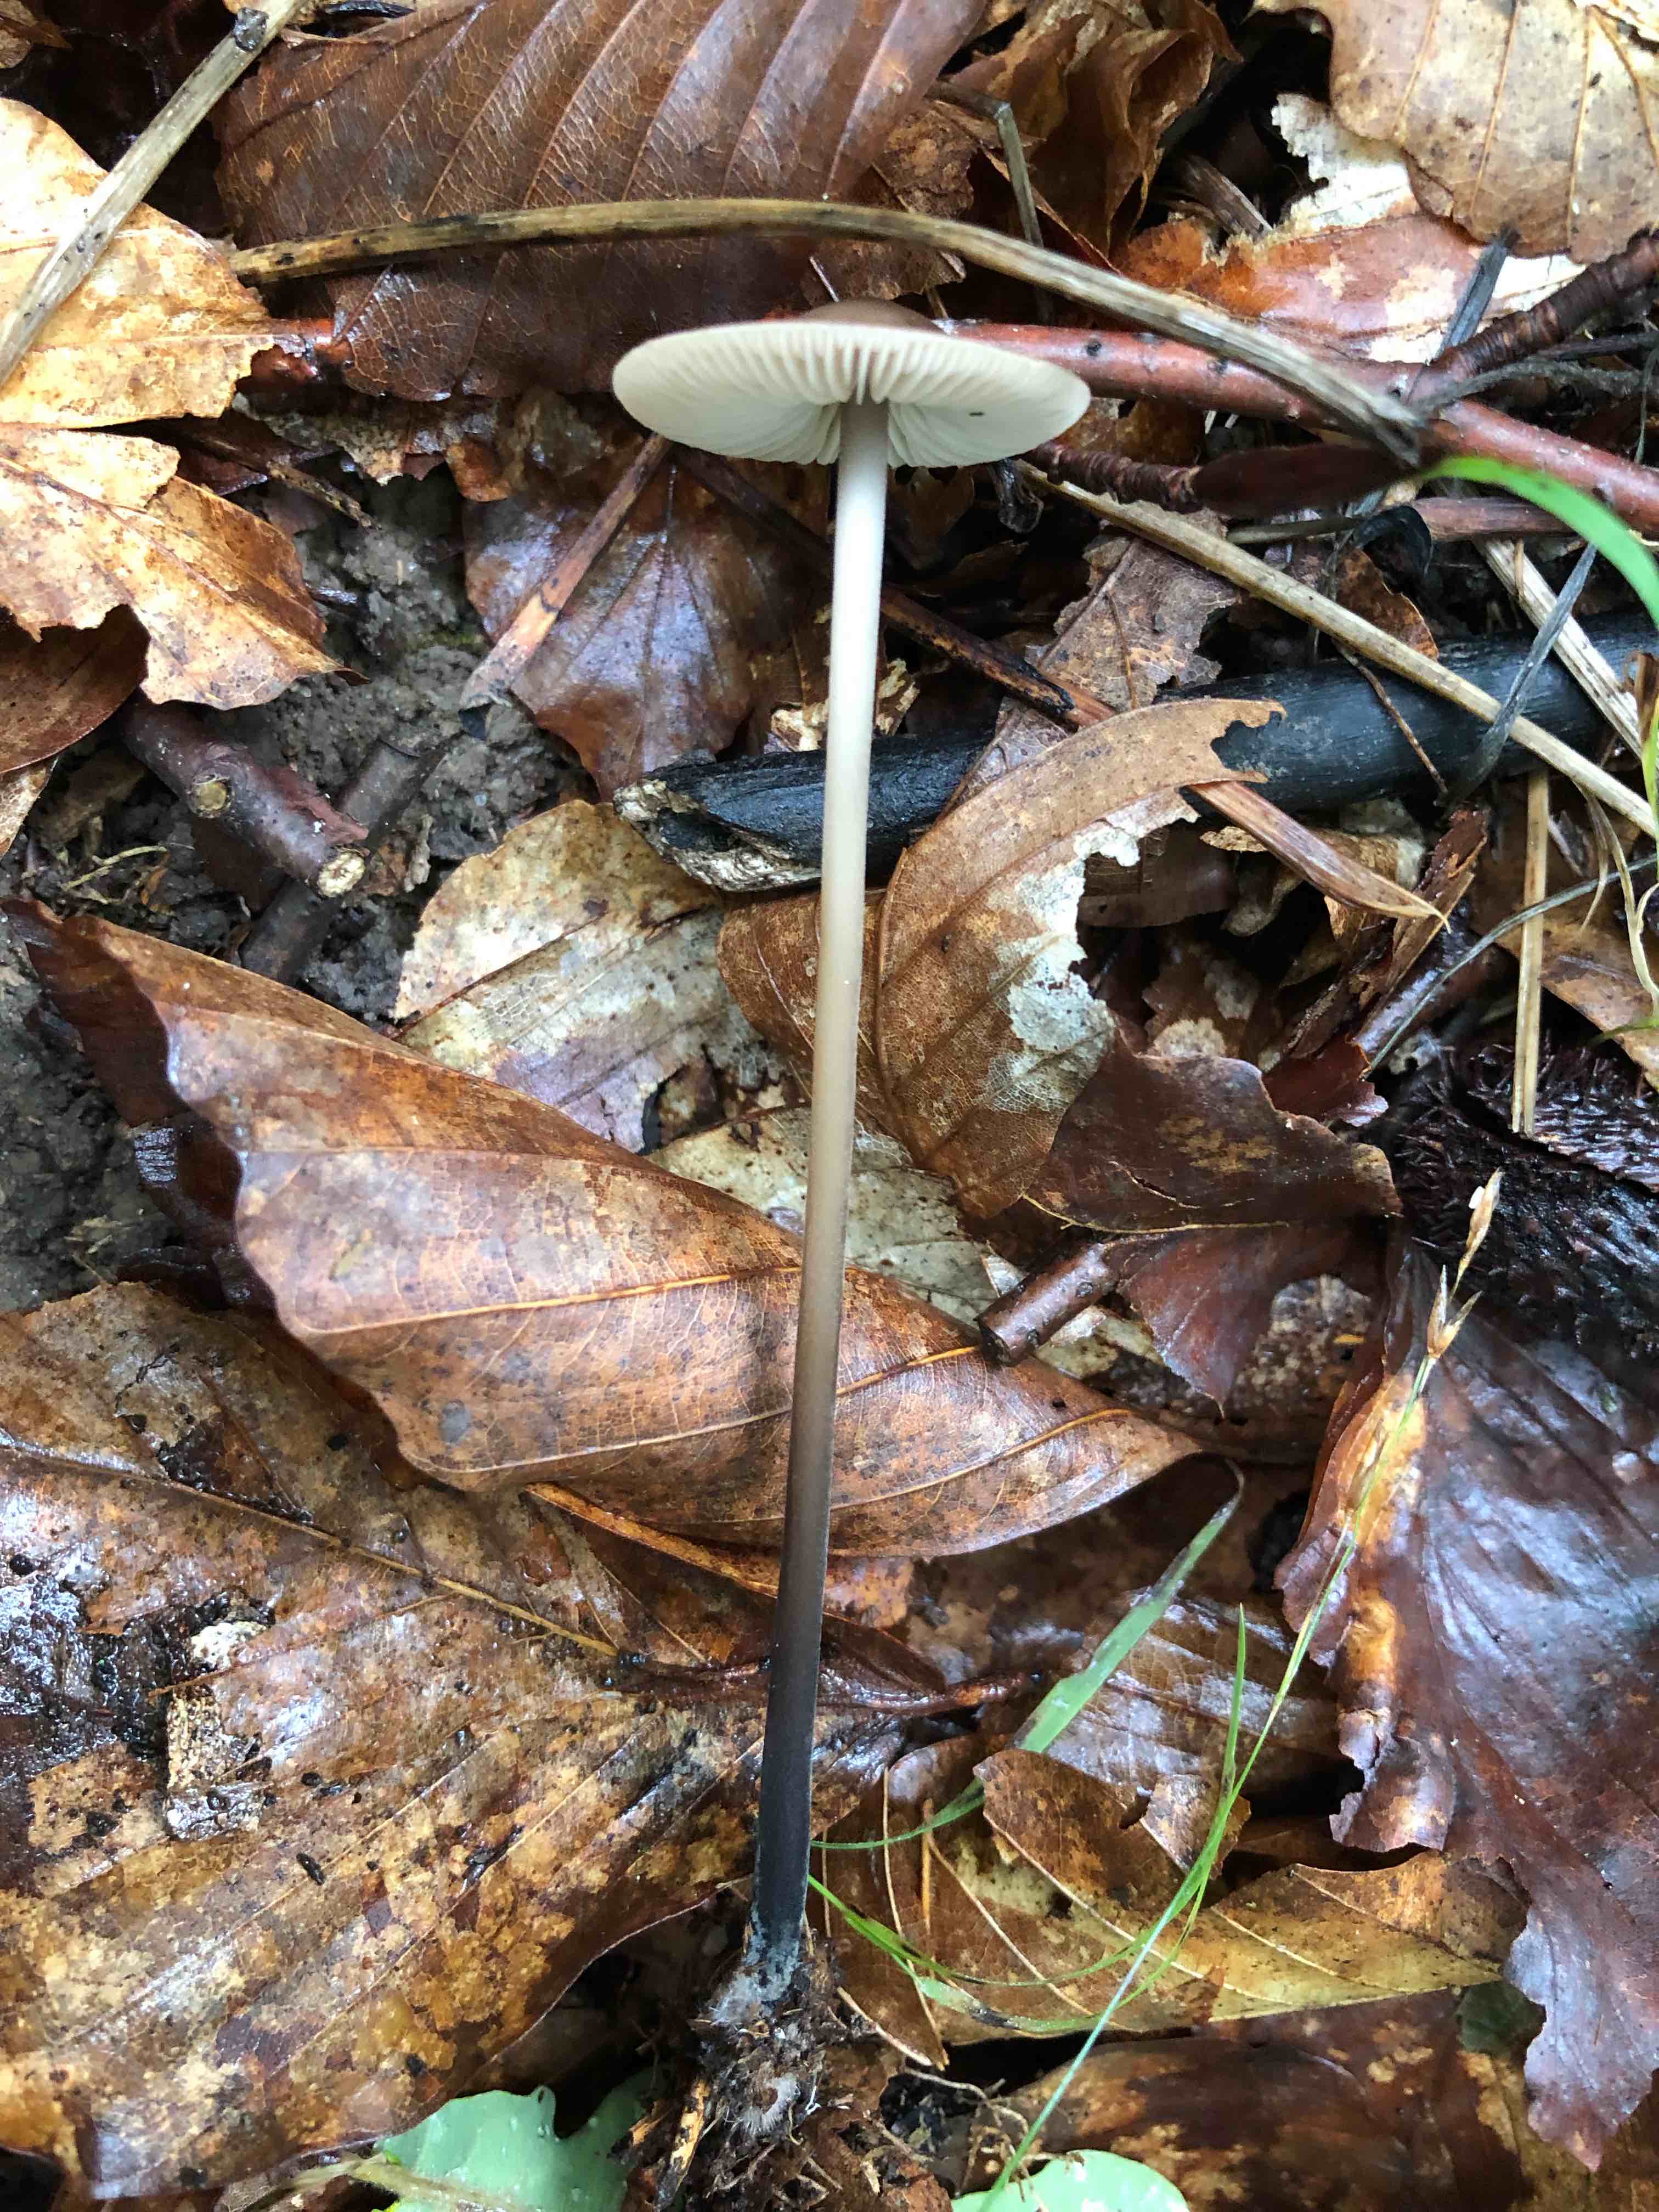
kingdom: Fungi
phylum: Basidiomycota
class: Agaricomycetes
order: Agaricales
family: Omphalotaceae
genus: Mycetinis
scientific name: Mycetinis alliaceus
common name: stor løghat
